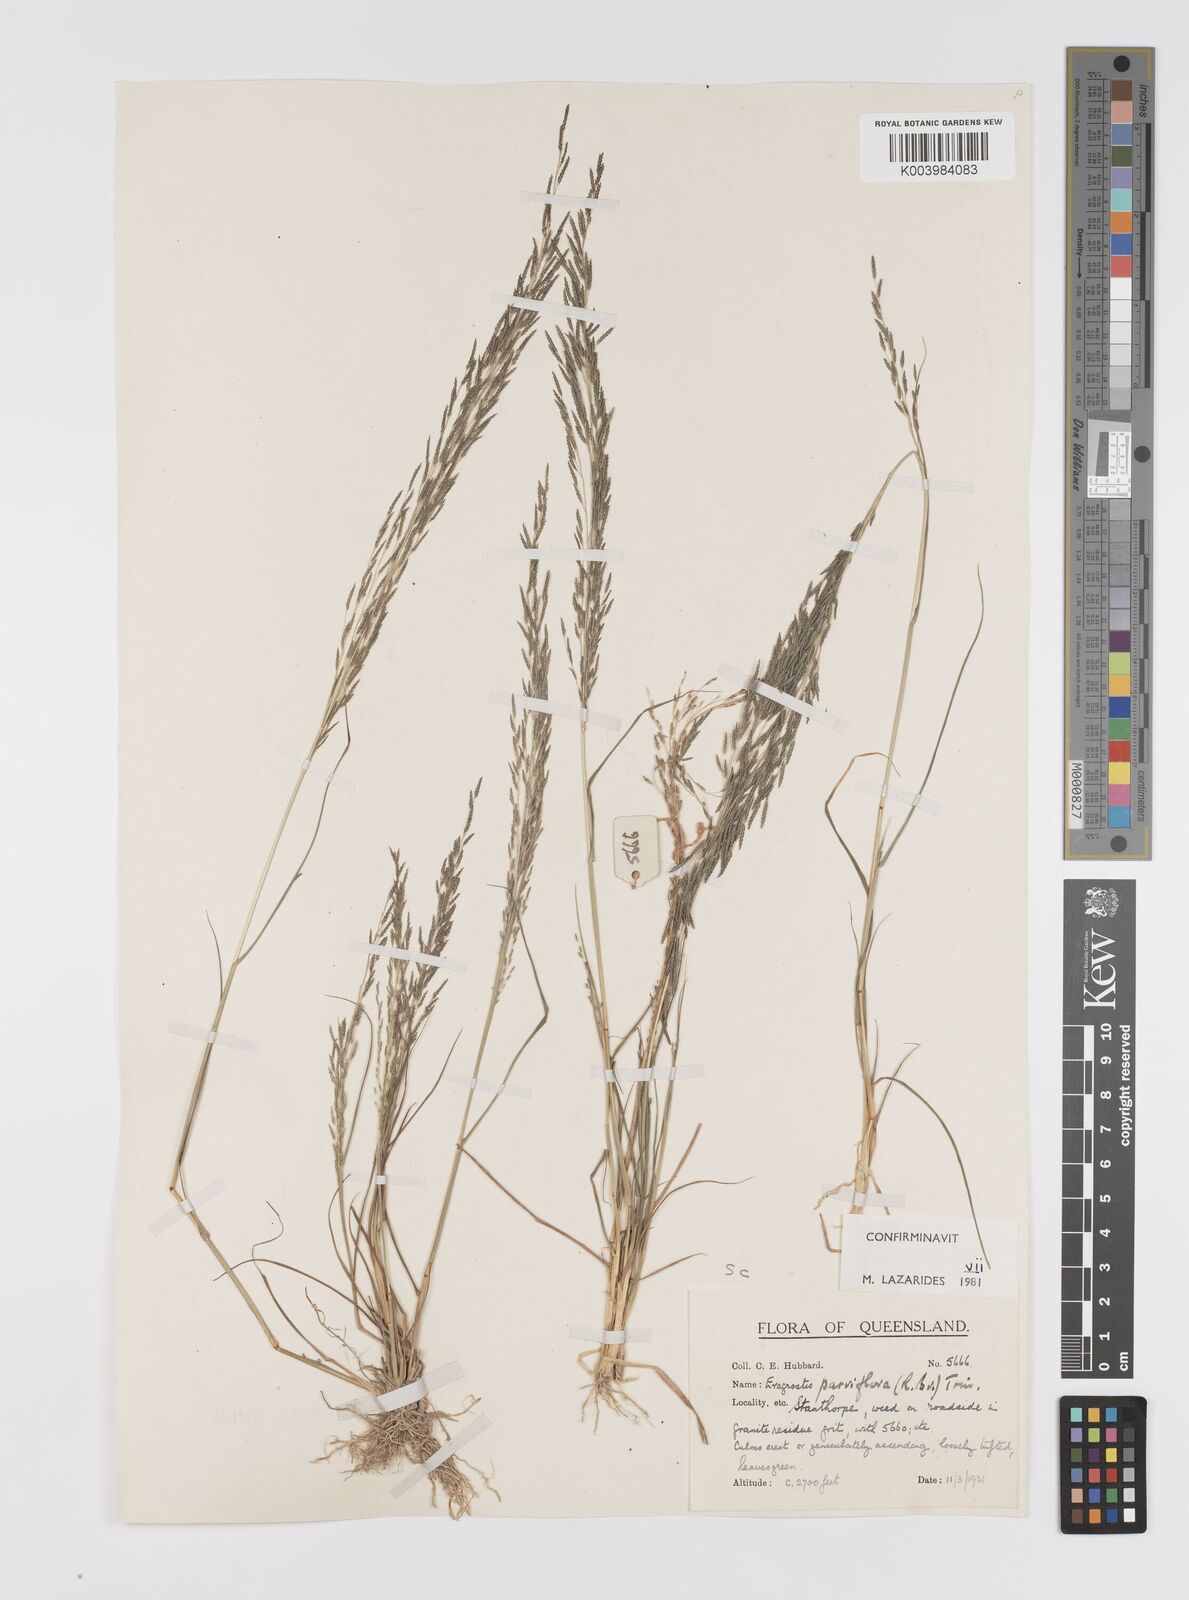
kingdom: Plantae
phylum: Tracheophyta
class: Liliopsida
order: Poales
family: Poaceae
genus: Eragrostis
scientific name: Eragrostis parviflora
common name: Weeping love-grass
